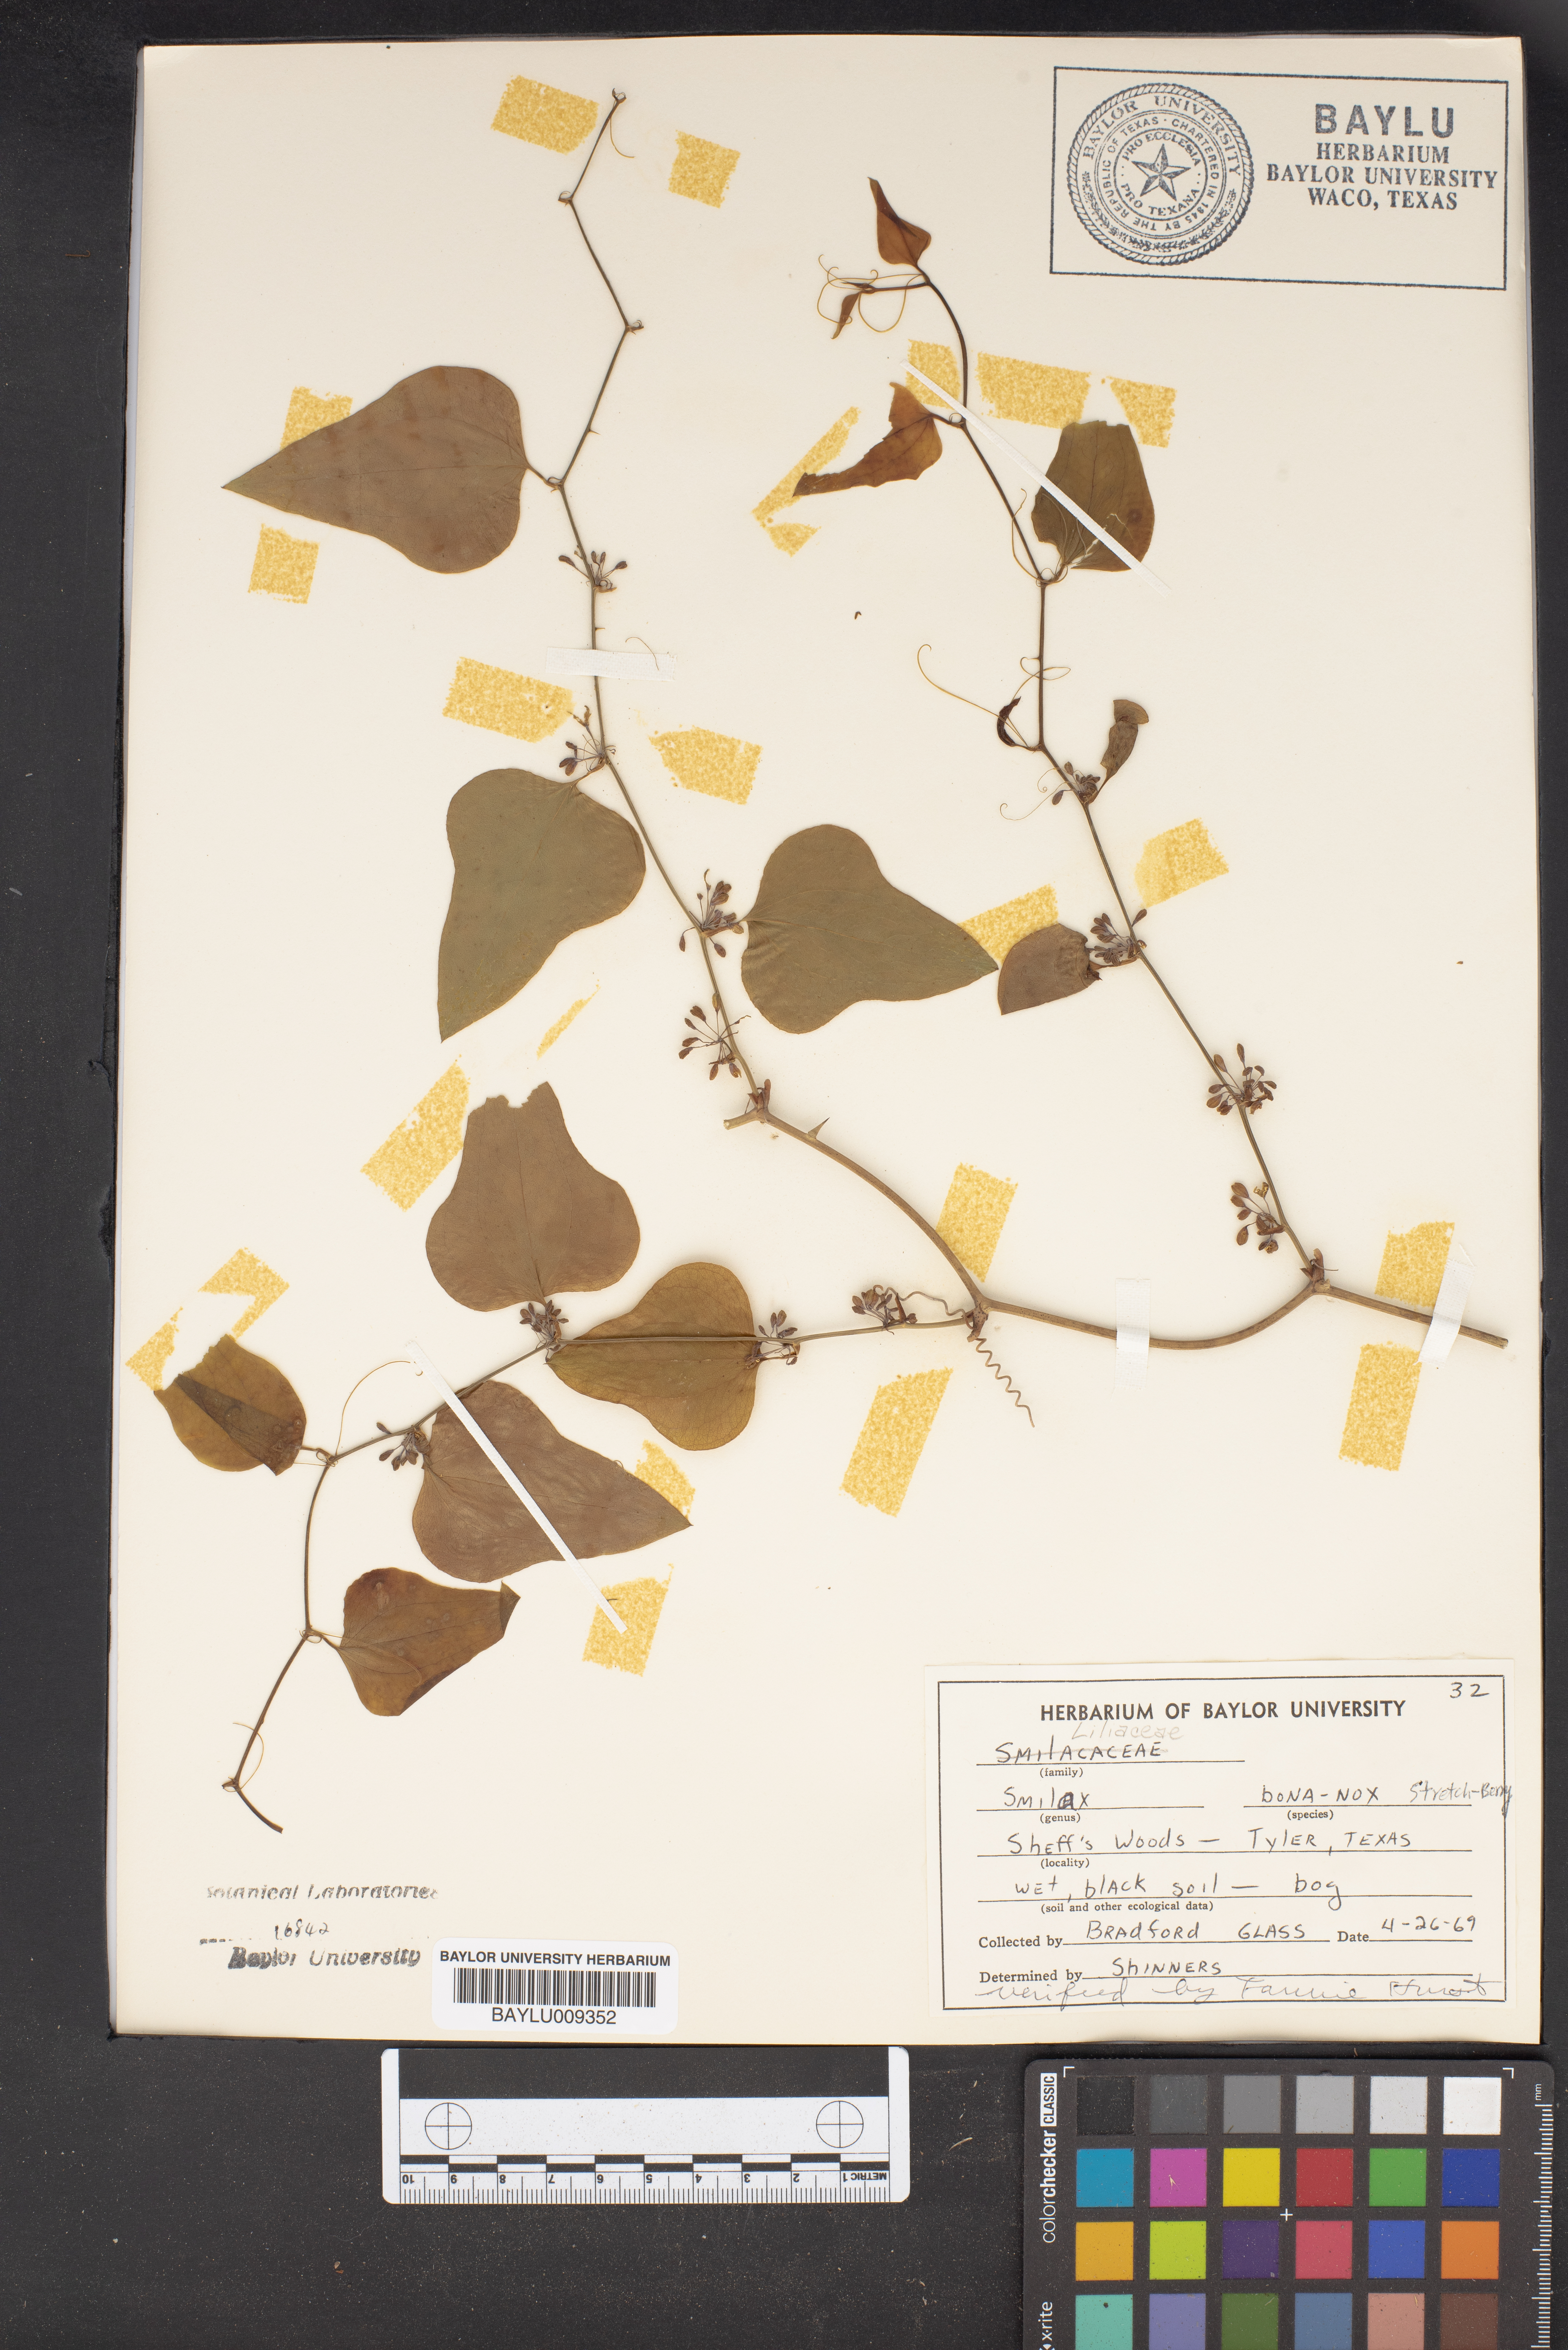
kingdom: Plantae
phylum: Tracheophyta
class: Liliopsida
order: Liliales
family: Smilacaceae
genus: Smilax
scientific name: Smilax bona-nox
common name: Catbrier
